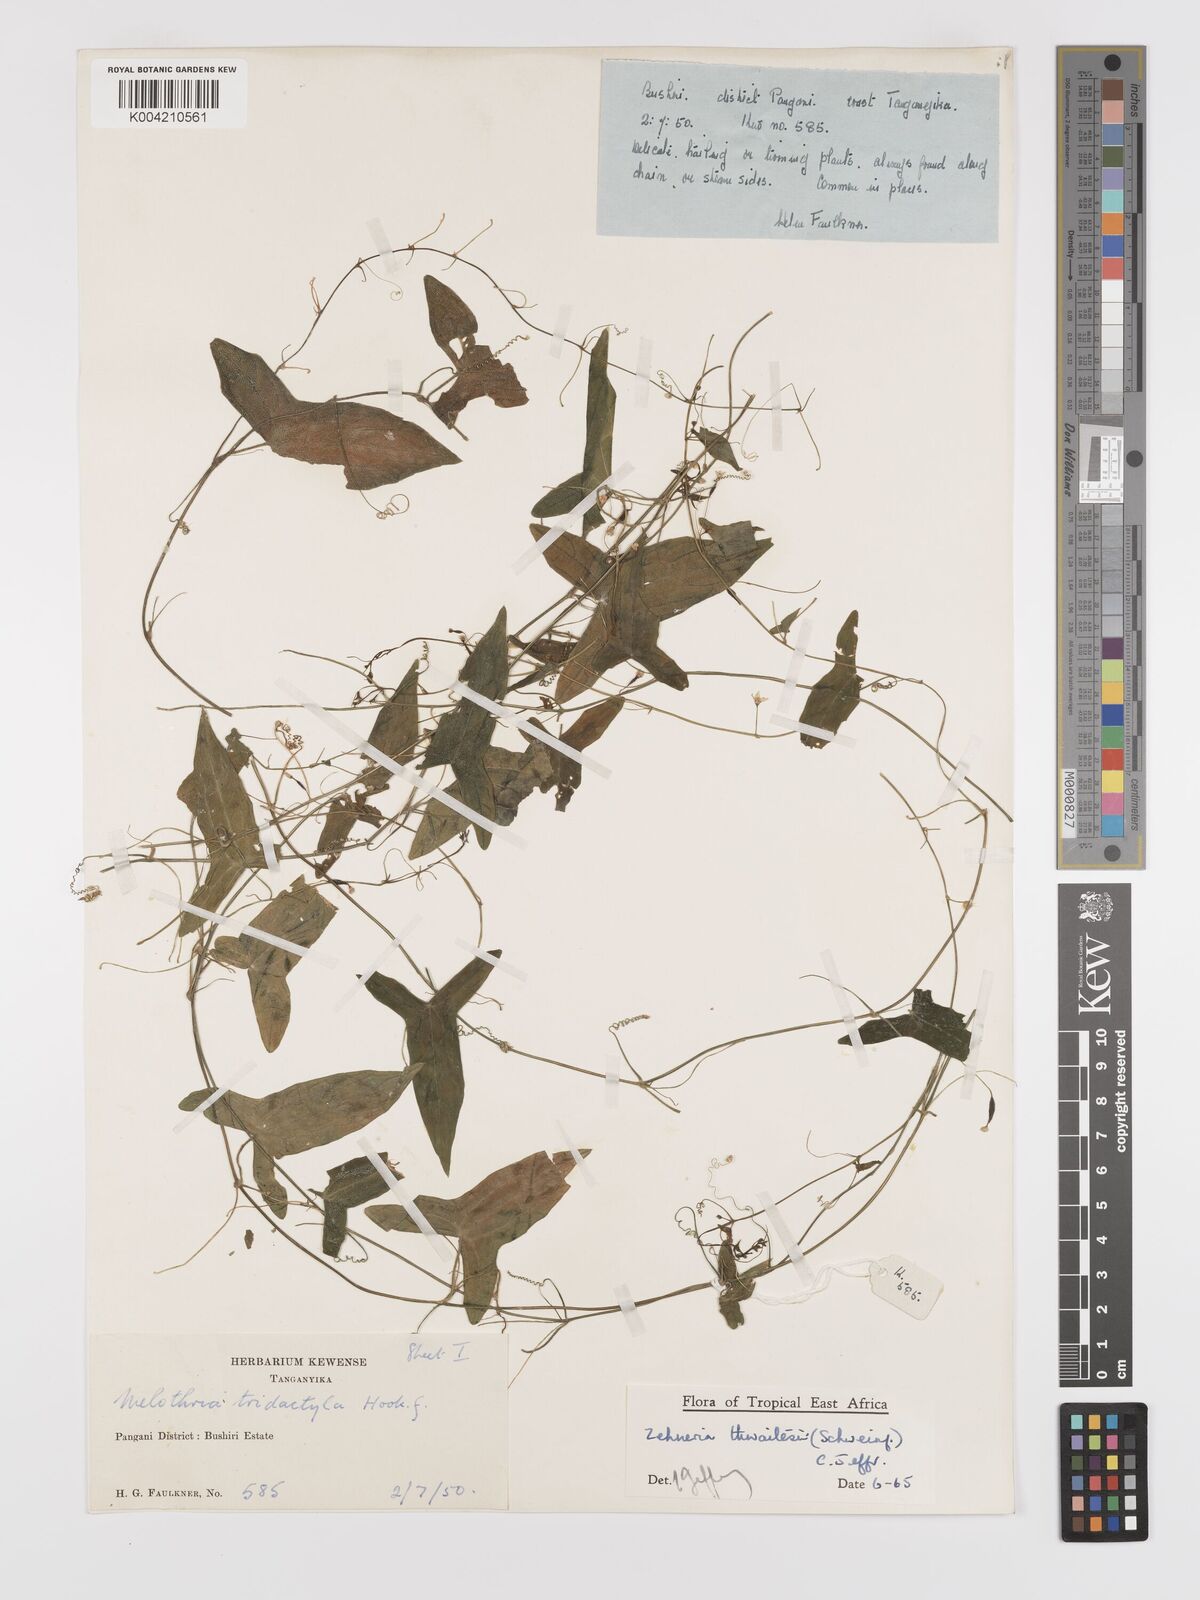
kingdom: Plantae
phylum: Tracheophyta
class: Magnoliopsida
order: Cucurbitales
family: Cucurbitaceae
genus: Zehneria
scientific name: Zehneria thwaitesii
